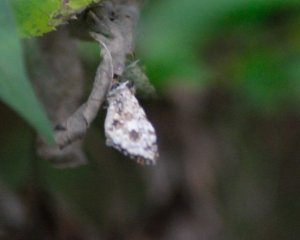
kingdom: Animalia
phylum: Arthropoda
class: Insecta
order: Lepidoptera
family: Hesperiidae
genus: Pyrgus
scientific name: Pyrgus
